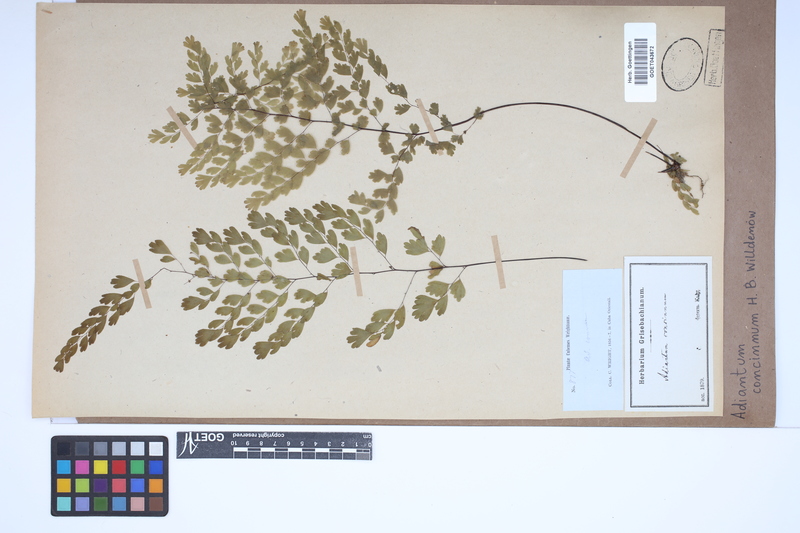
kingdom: Plantae
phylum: Tracheophyta
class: Polypodiopsida
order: Polypodiales
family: Pteridaceae
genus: Adiantum
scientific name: Adiantum concinnum
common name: Brittle maidenhair fern
